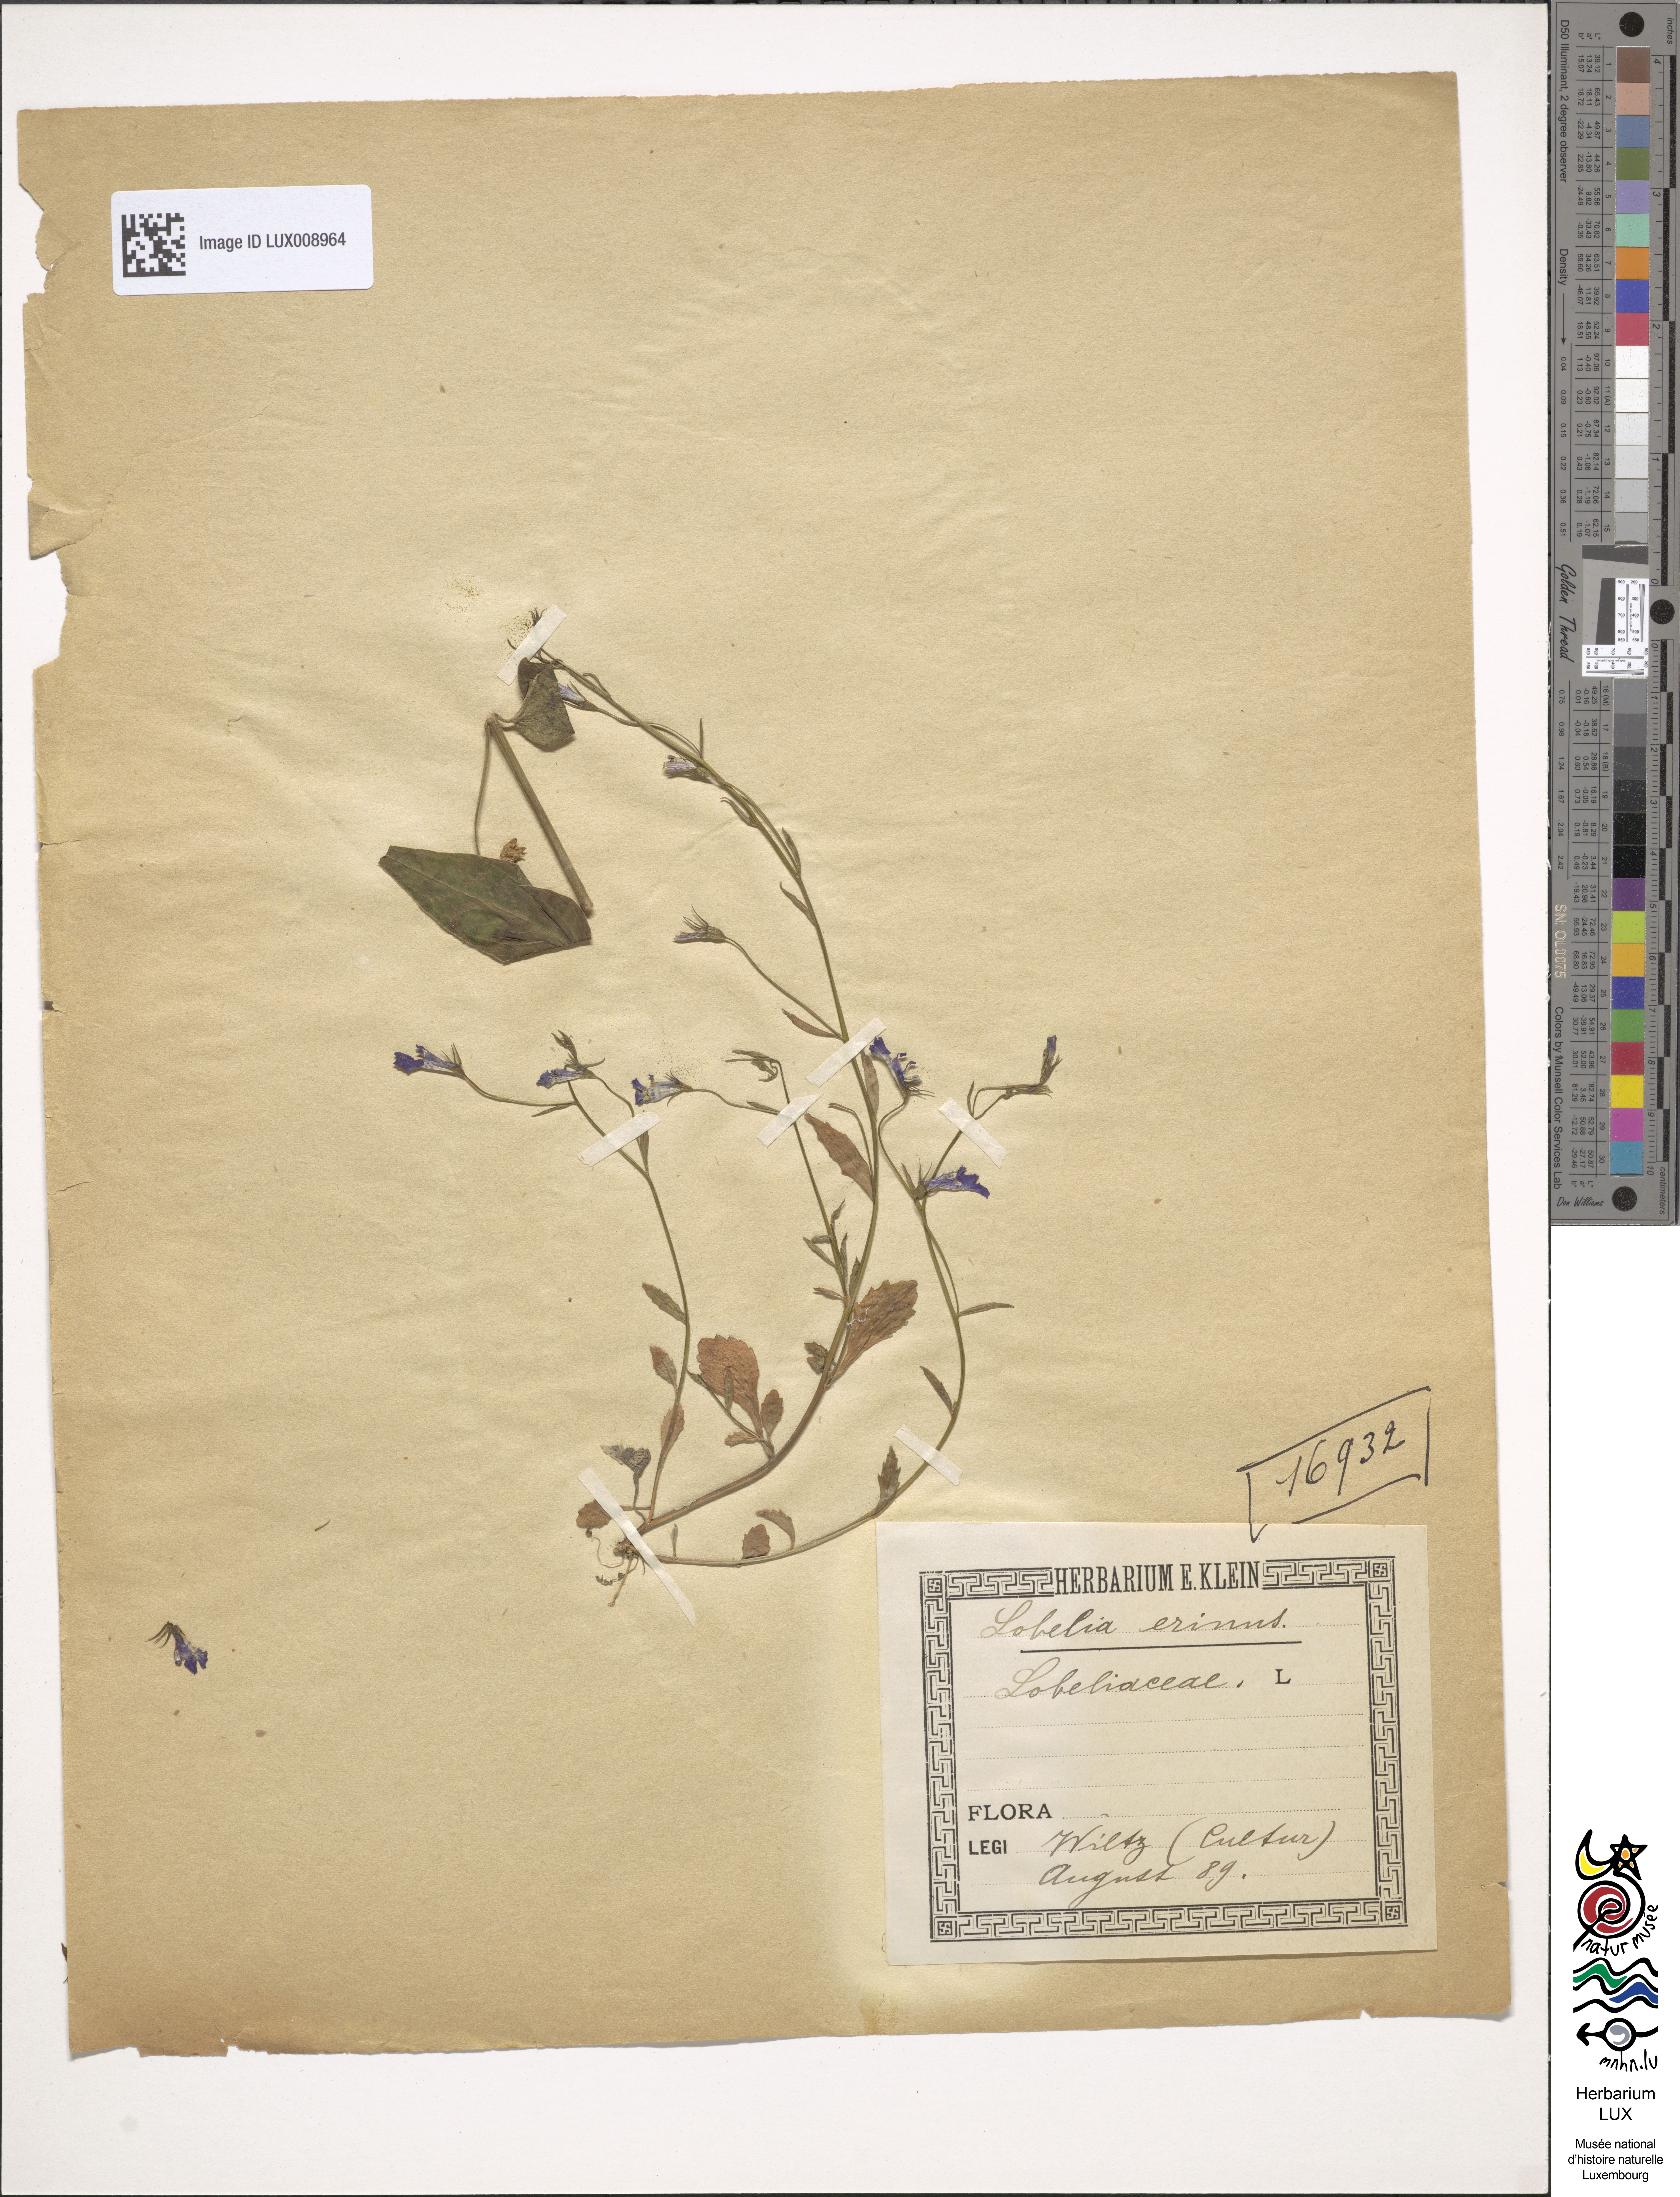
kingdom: Plantae
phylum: Tracheophyta
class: Magnoliopsida
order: Asterales
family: Campanulaceae
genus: Lobelia
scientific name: Lobelia erinus
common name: Edging lobelia
